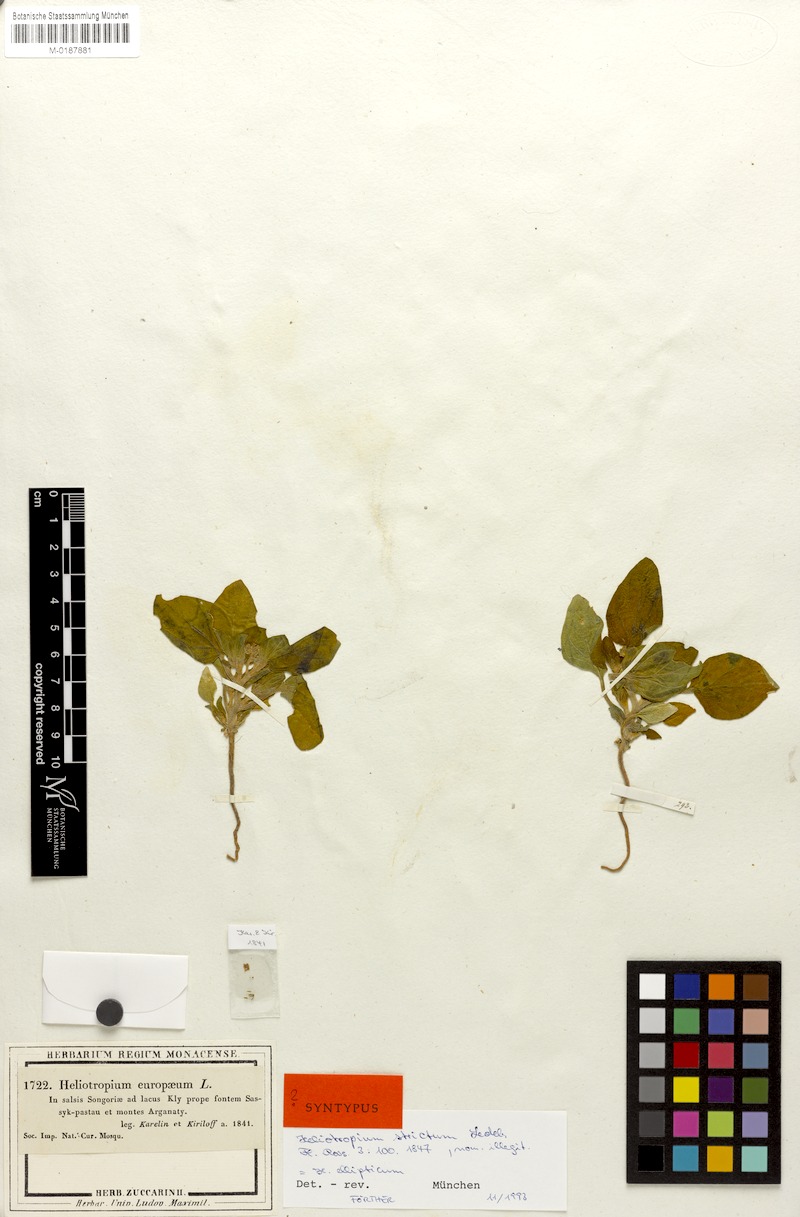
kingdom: Plantae
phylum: Tracheophyta
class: Magnoliopsida
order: Boraginales
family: Heliotropiaceae
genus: Heliotropium
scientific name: Heliotropium europaeum
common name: European heliotrope
